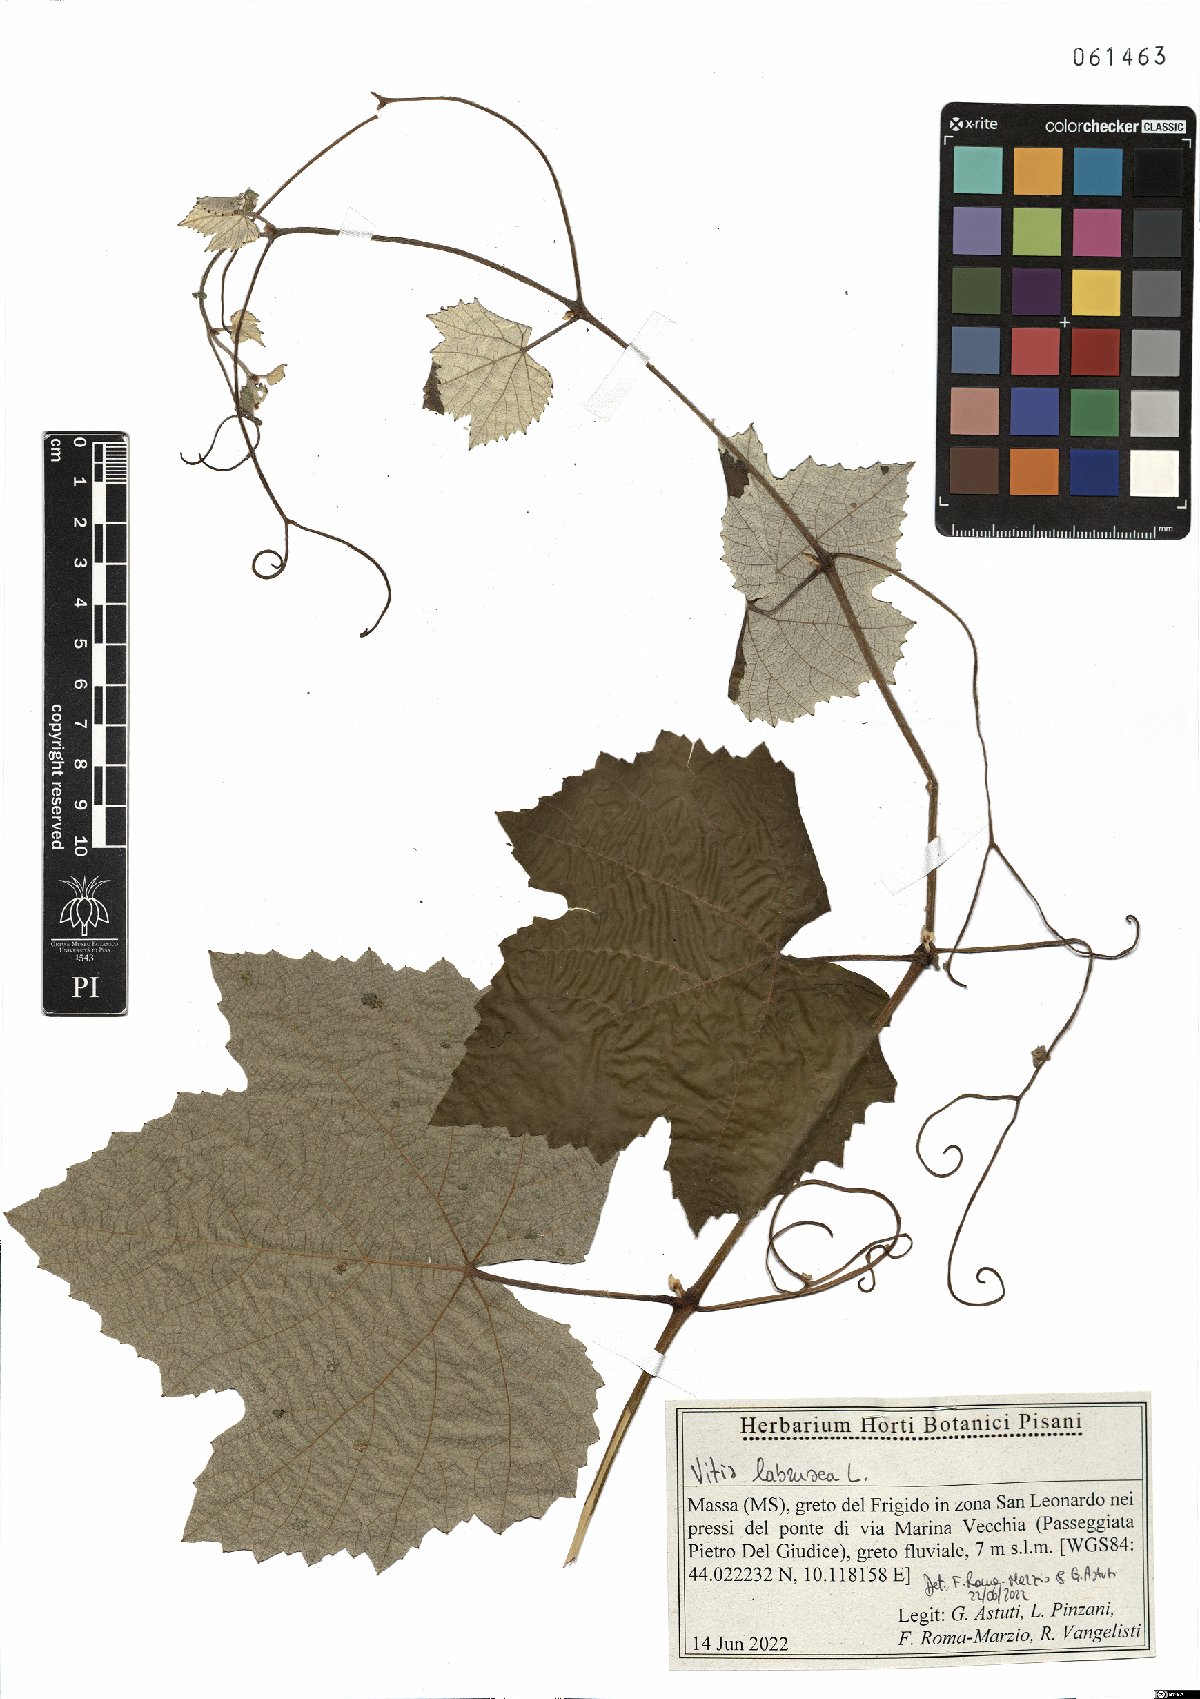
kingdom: Plantae
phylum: Tracheophyta
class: Magnoliopsida
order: Vitales
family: Vitaceae
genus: Vitis
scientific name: Vitis labrusca
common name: Concord grape
